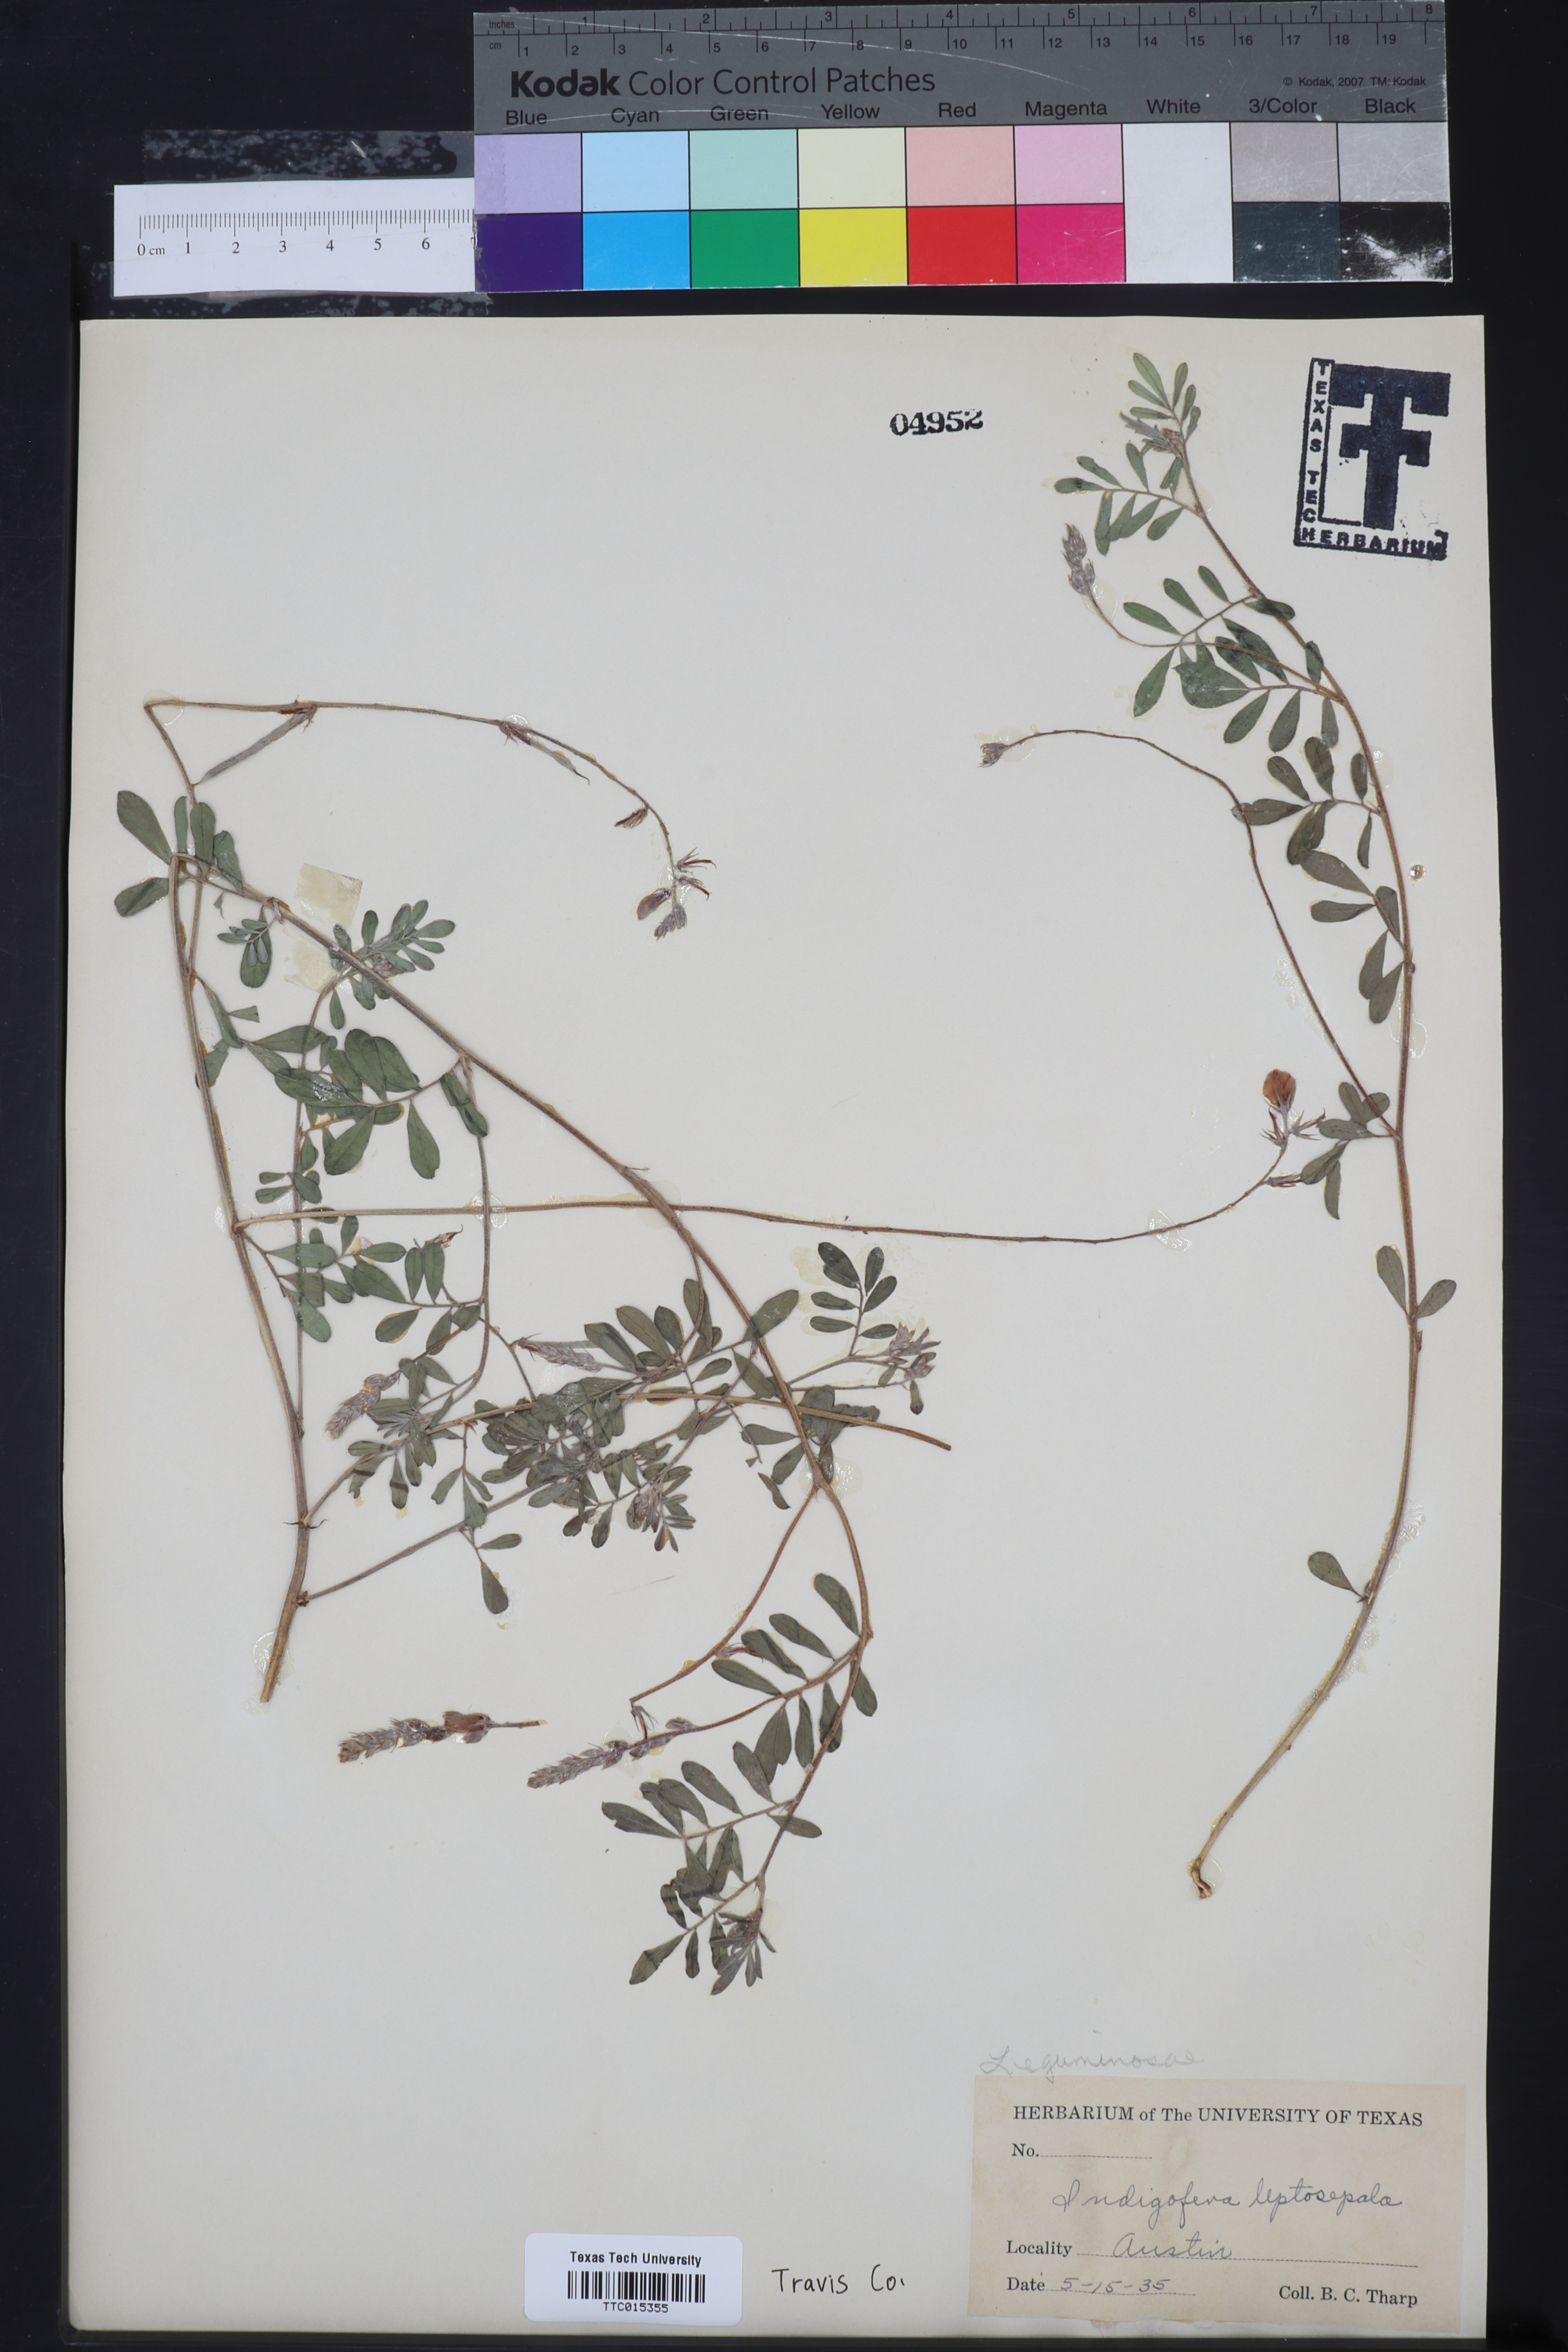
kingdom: Plantae
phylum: Tracheophyta
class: Magnoliopsida
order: Fabales
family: Fabaceae
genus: Indigofera
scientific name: Indigofera argutidens
